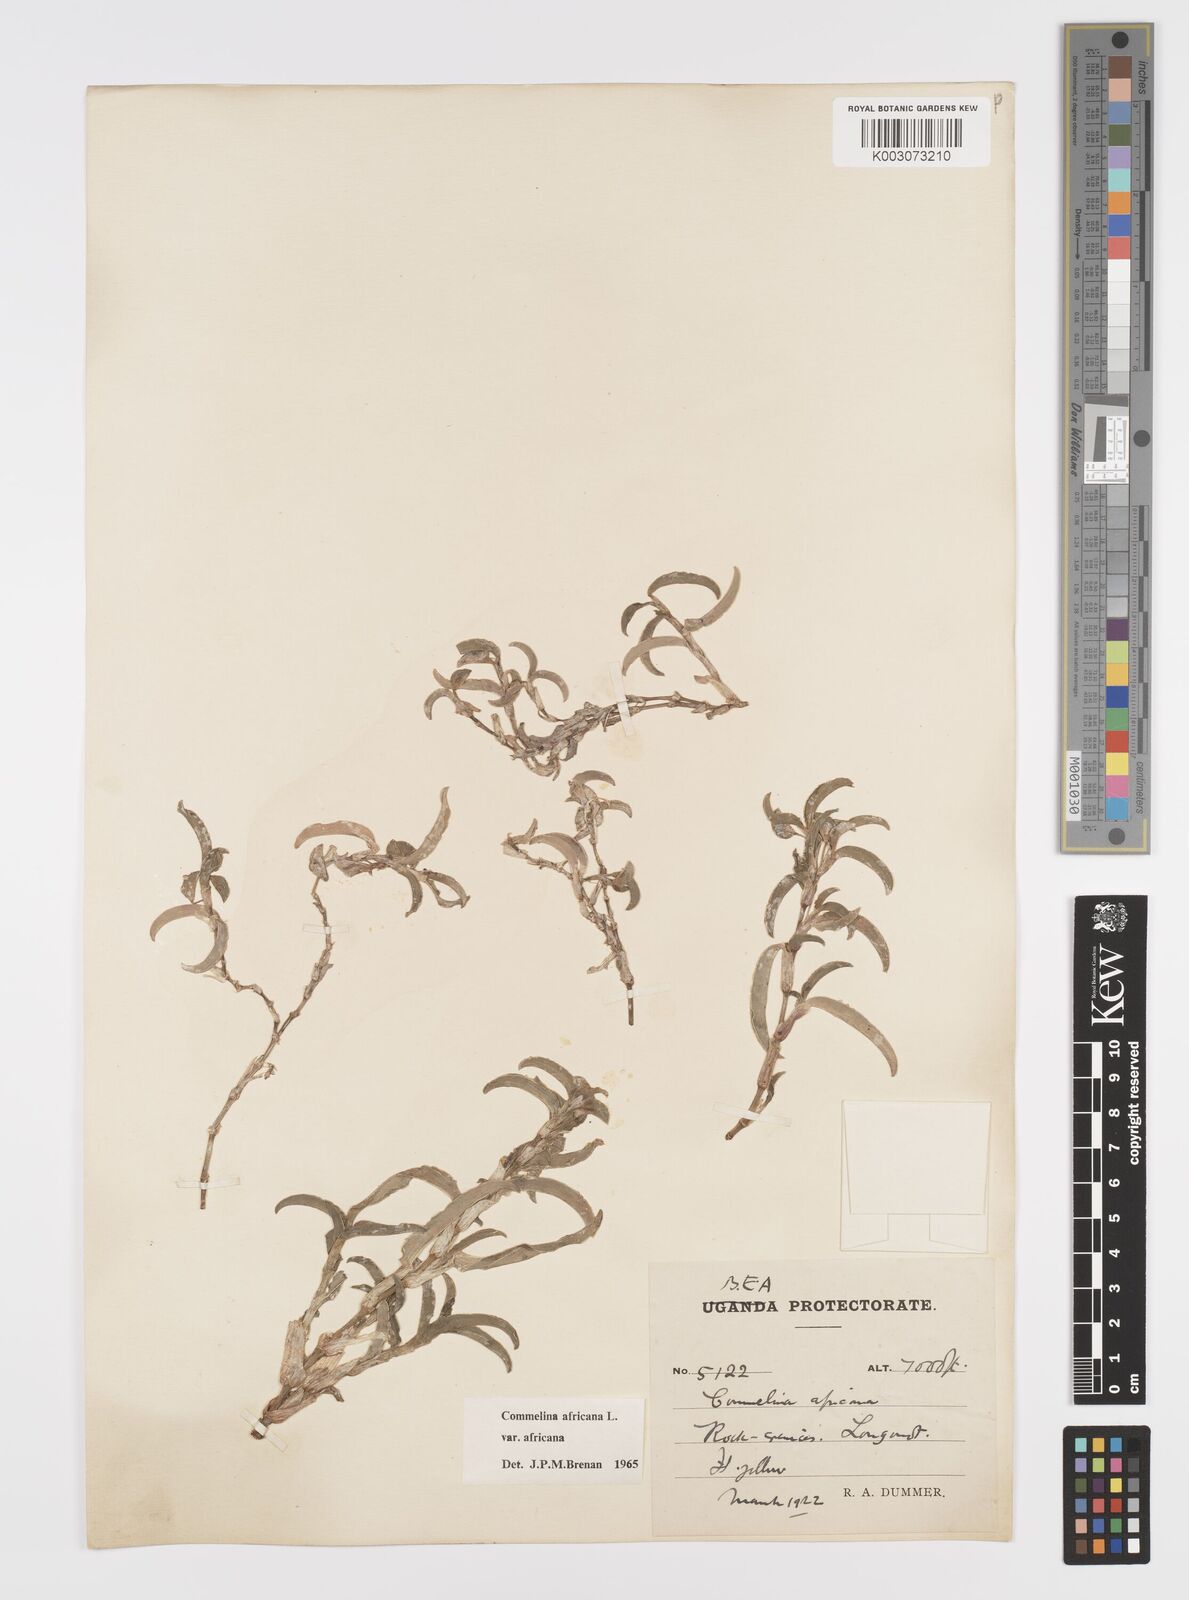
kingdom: Plantae
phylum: Tracheophyta
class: Liliopsida
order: Commelinales
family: Commelinaceae
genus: Commelina
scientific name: Commelina africana
